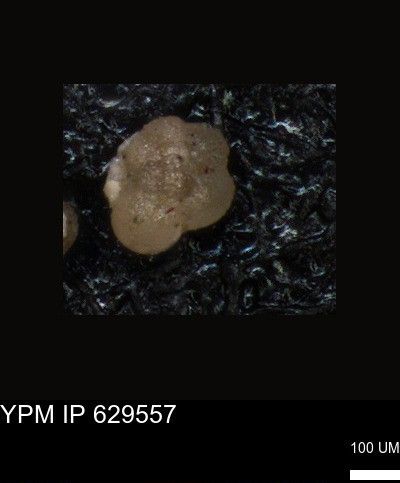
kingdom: Chromista
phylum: Foraminifera
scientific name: Foraminifera
